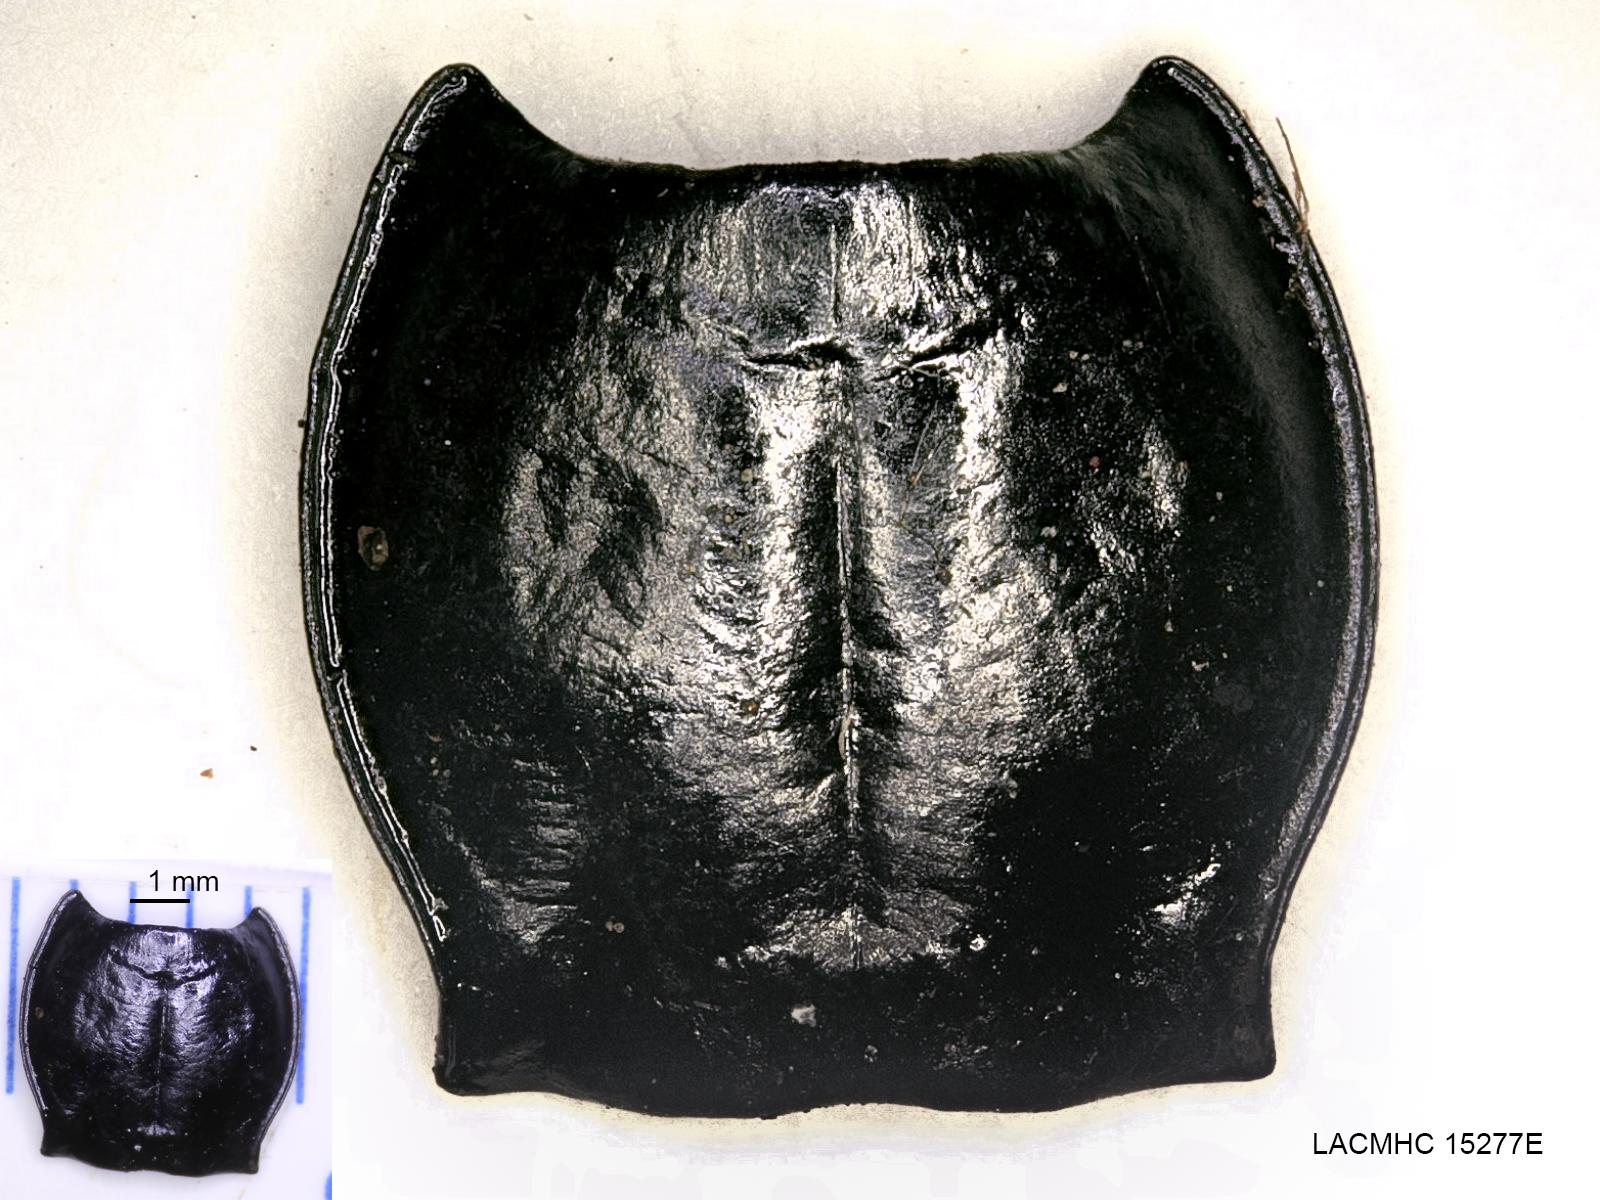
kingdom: Animalia
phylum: Arthropoda
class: Insecta
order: Coleoptera
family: Carabidae
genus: Pterostichus
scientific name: Pterostichus illustris
